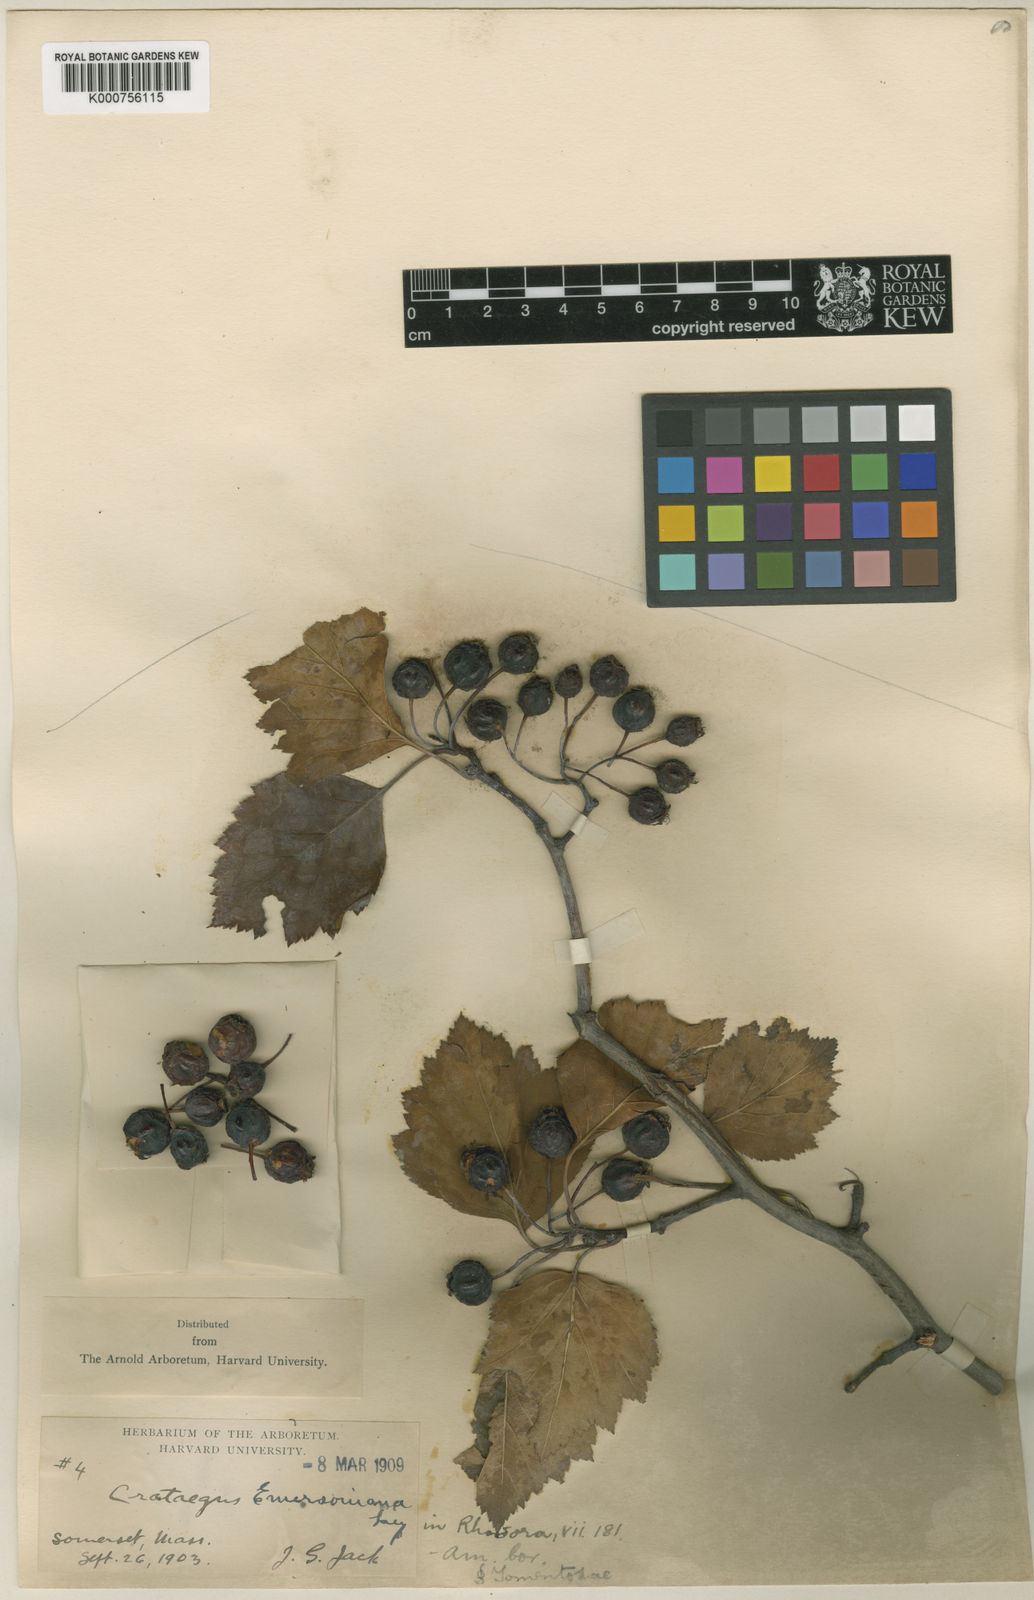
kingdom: Plantae
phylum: Tracheophyta
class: Magnoliopsida
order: Rosales
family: Rosaceae
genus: Crataegus
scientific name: Crataegus emersoniana
